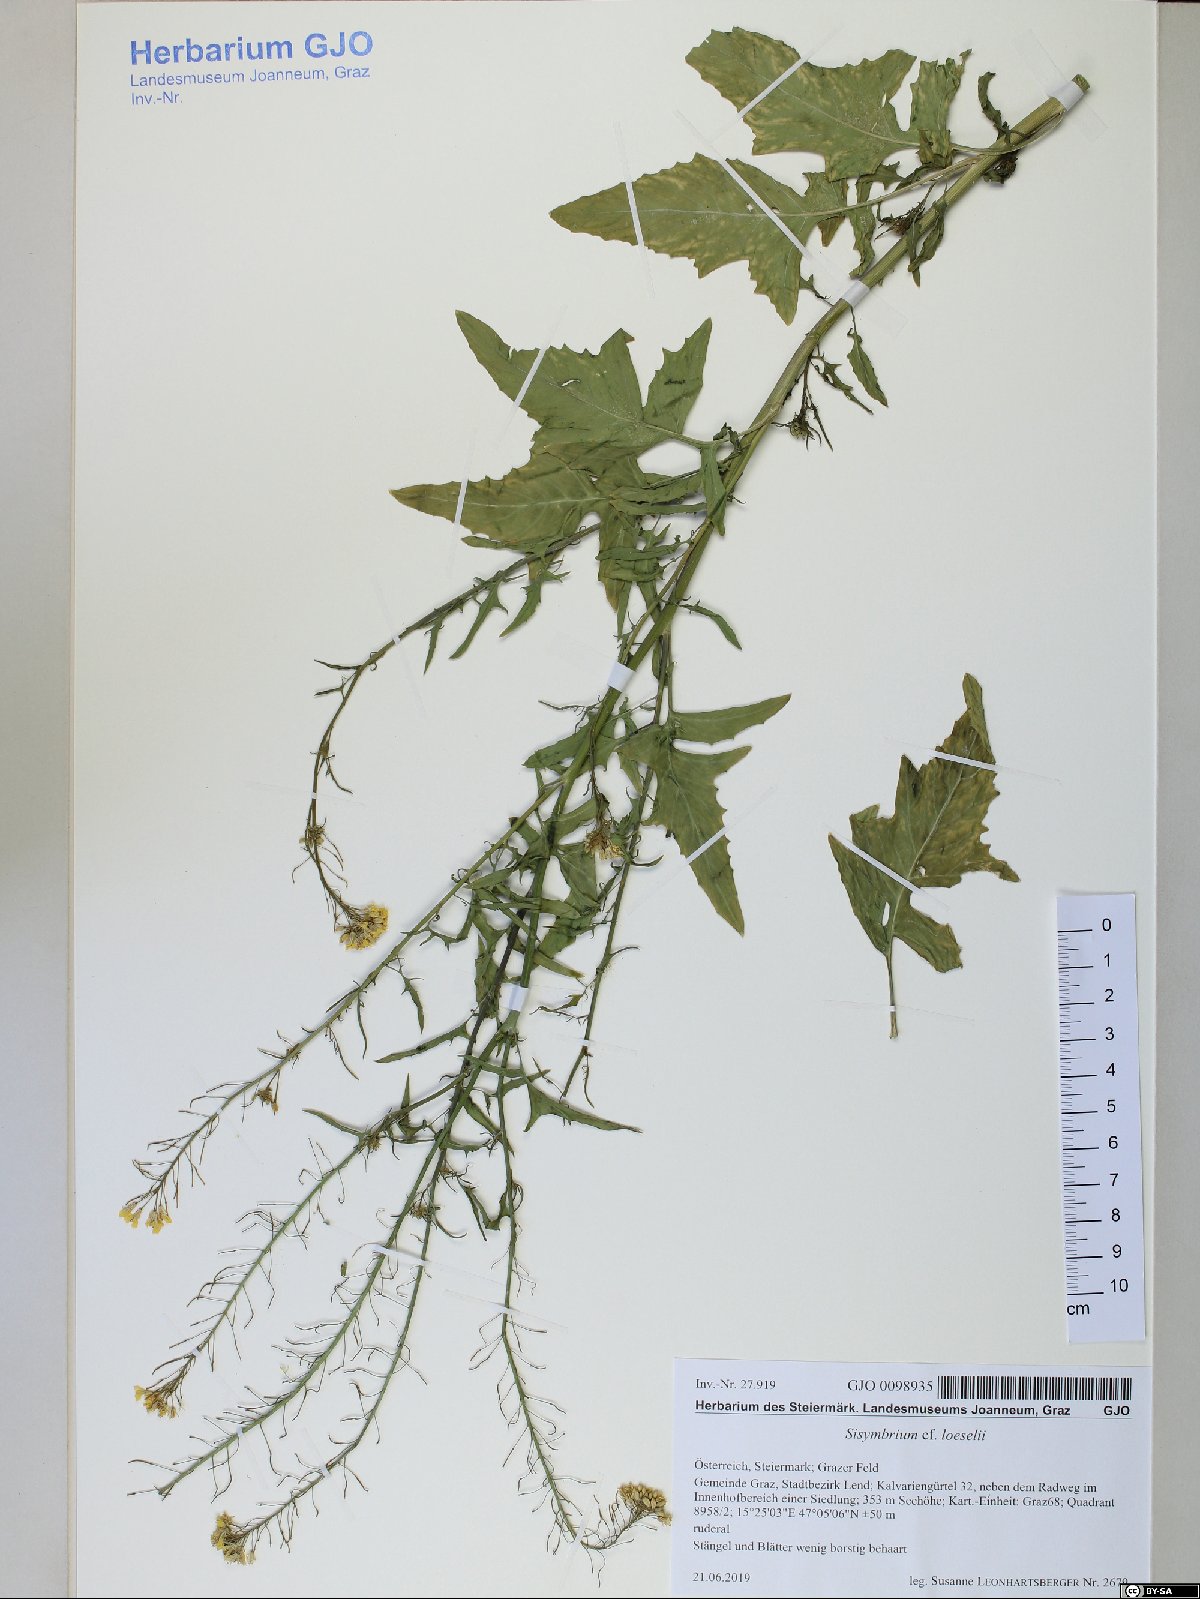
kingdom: Plantae
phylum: Tracheophyta
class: Magnoliopsida
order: Brassicales
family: Brassicaceae
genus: Sisymbrium
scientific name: Sisymbrium loeselii
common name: False london-rocket
